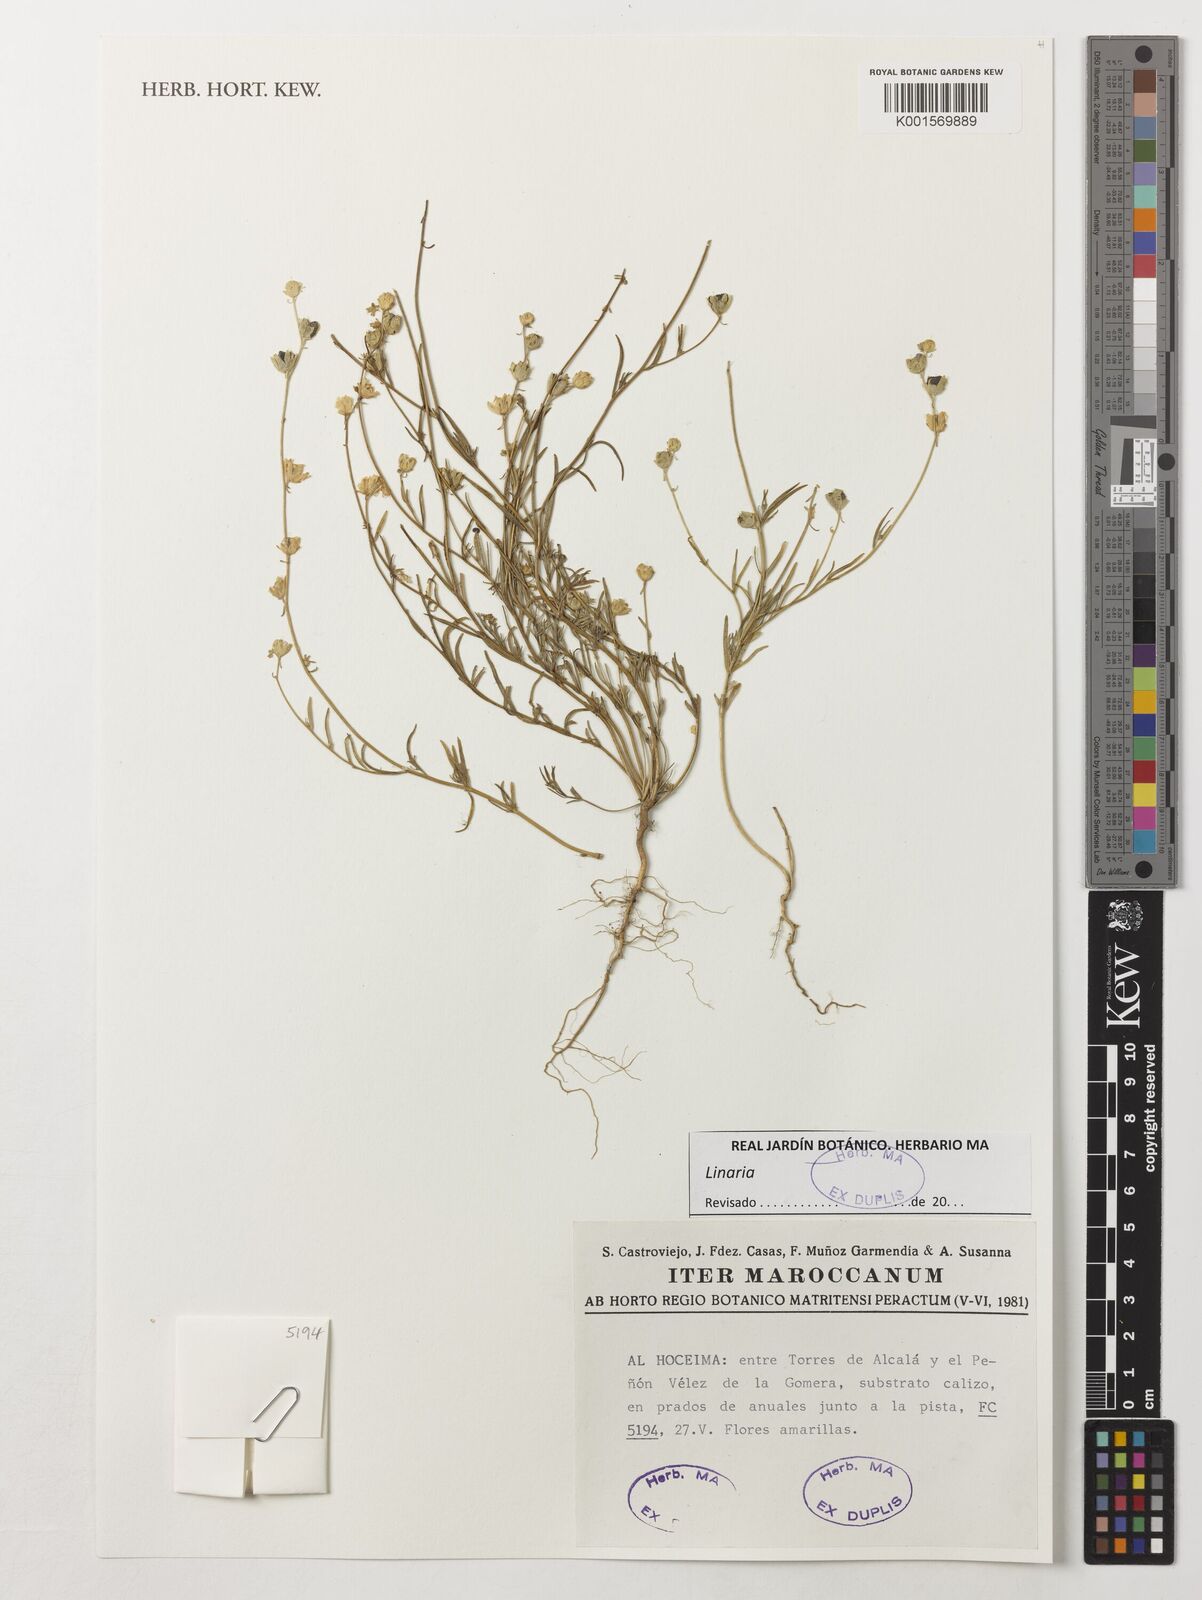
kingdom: Plantae
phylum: Tracheophyta
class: Magnoliopsida
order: Lamiales
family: Plantaginaceae
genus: Linaria
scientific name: Linaria
